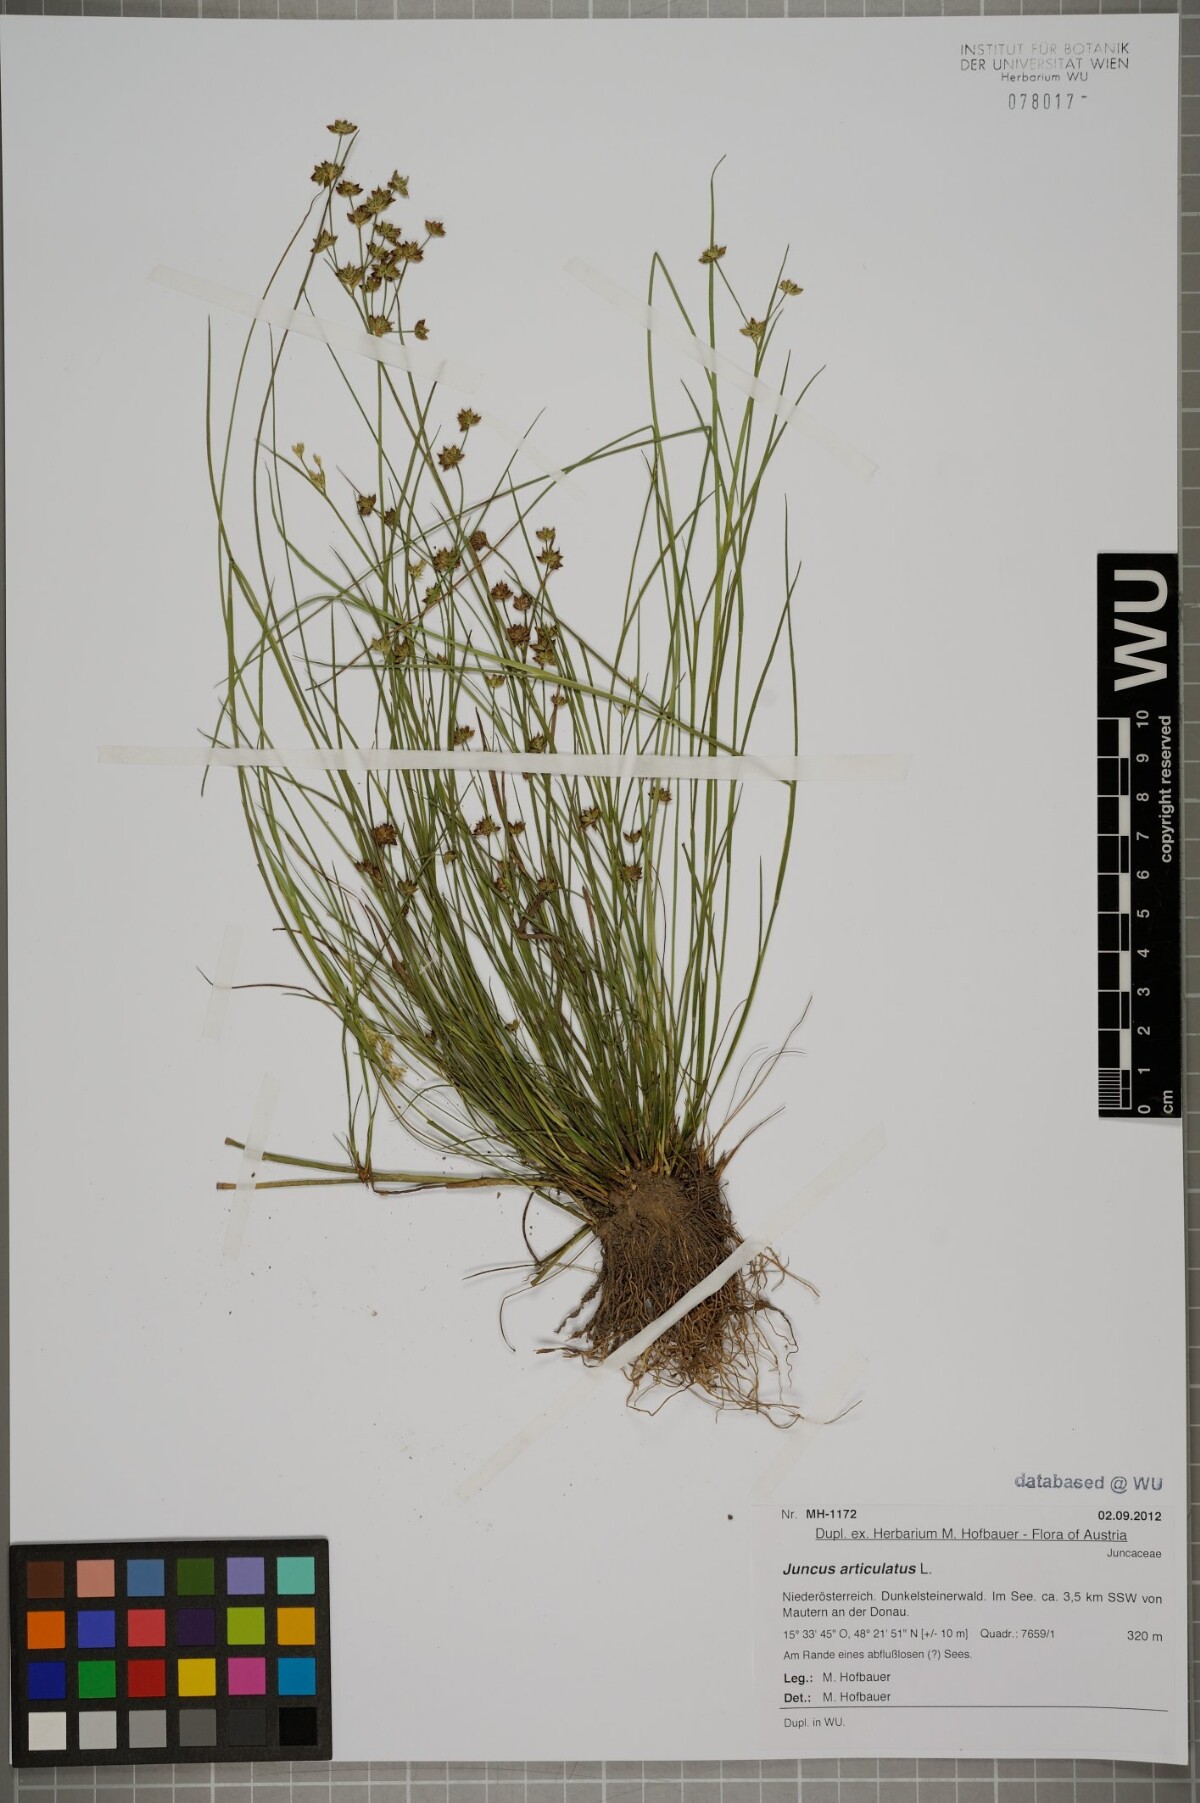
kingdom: Plantae
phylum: Tracheophyta
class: Liliopsida
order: Poales
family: Juncaceae
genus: Juncus
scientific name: Juncus articulatus
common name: Jointed rush
